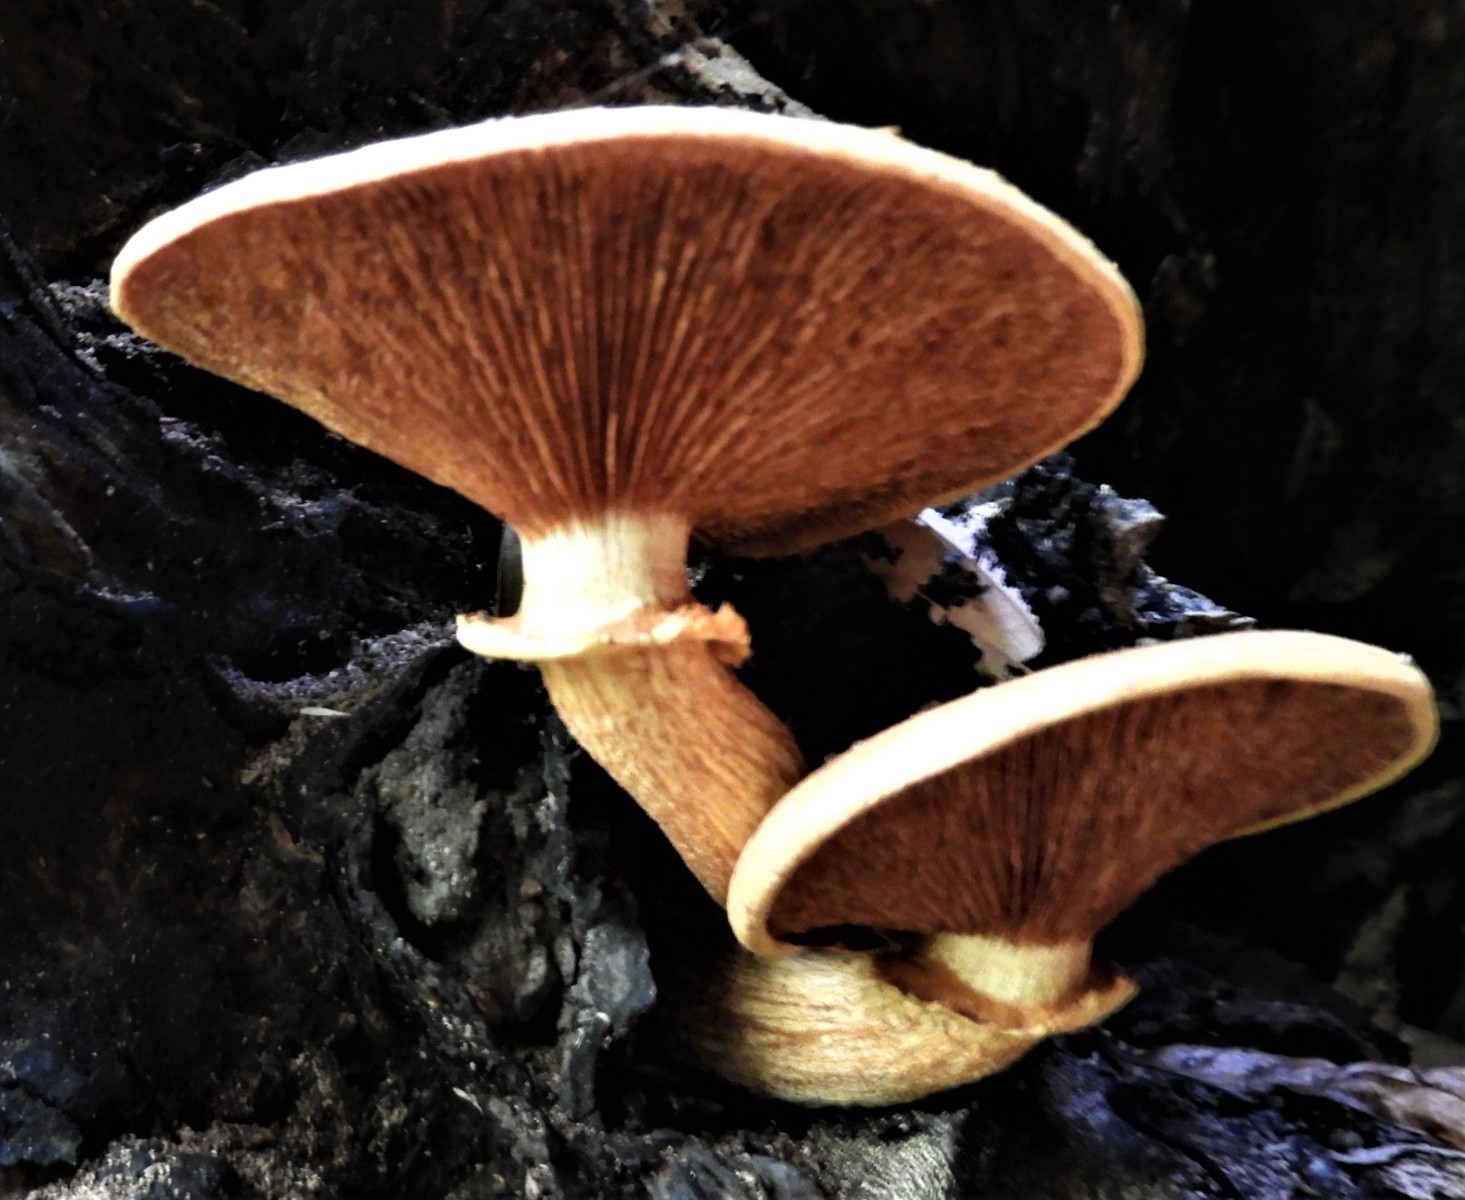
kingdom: Fungi
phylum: Basidiomycota
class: Agaricomycetes
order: Agaricales
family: Hymenogastraceae
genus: Gymnopilus
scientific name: Gymnopilus spectabilis
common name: fibret flammehat
